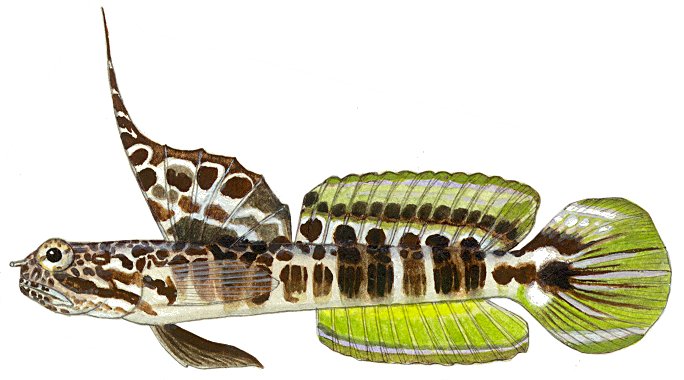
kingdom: Animalia
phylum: Chordata
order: Perciformes
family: Gobiidae
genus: Tomiyamichthys
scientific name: Tomiyamichthys fourmanoiri
